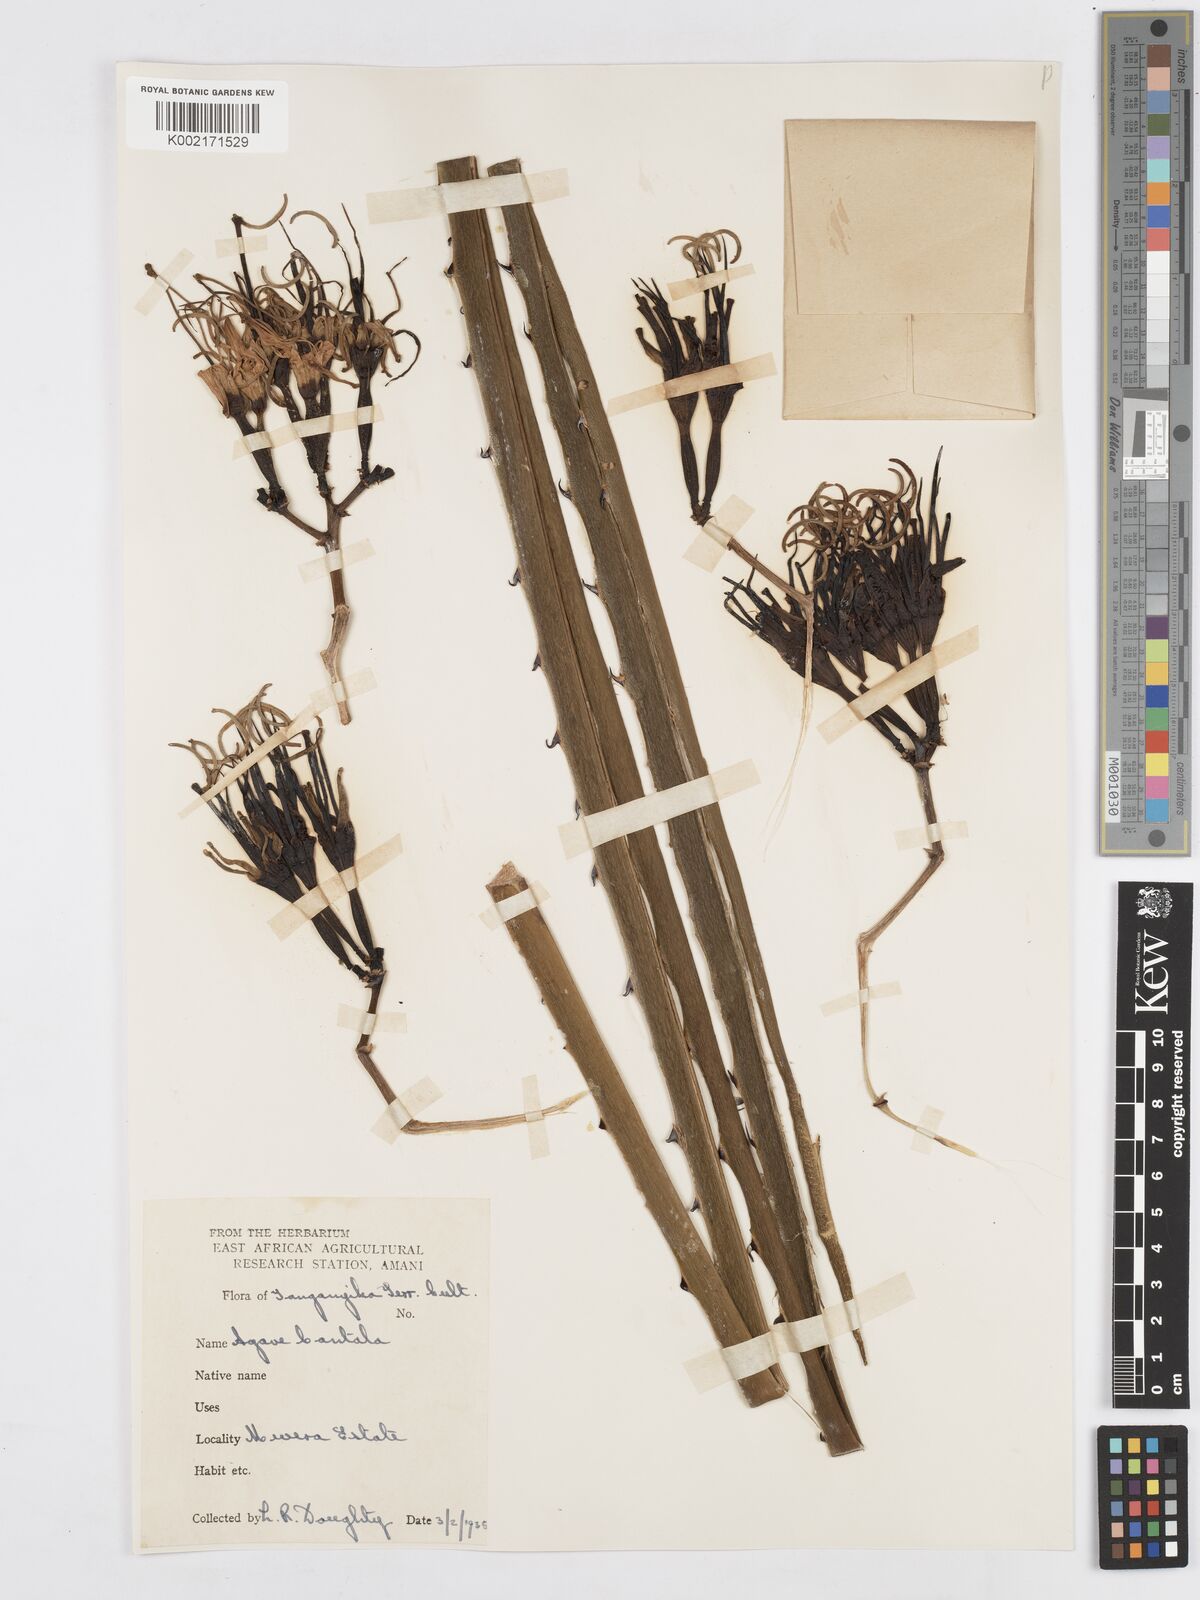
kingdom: Plantae
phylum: Tracheophyta
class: Liliopsida
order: Asparagales
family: Asparagaceae
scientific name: Asparagaceae
